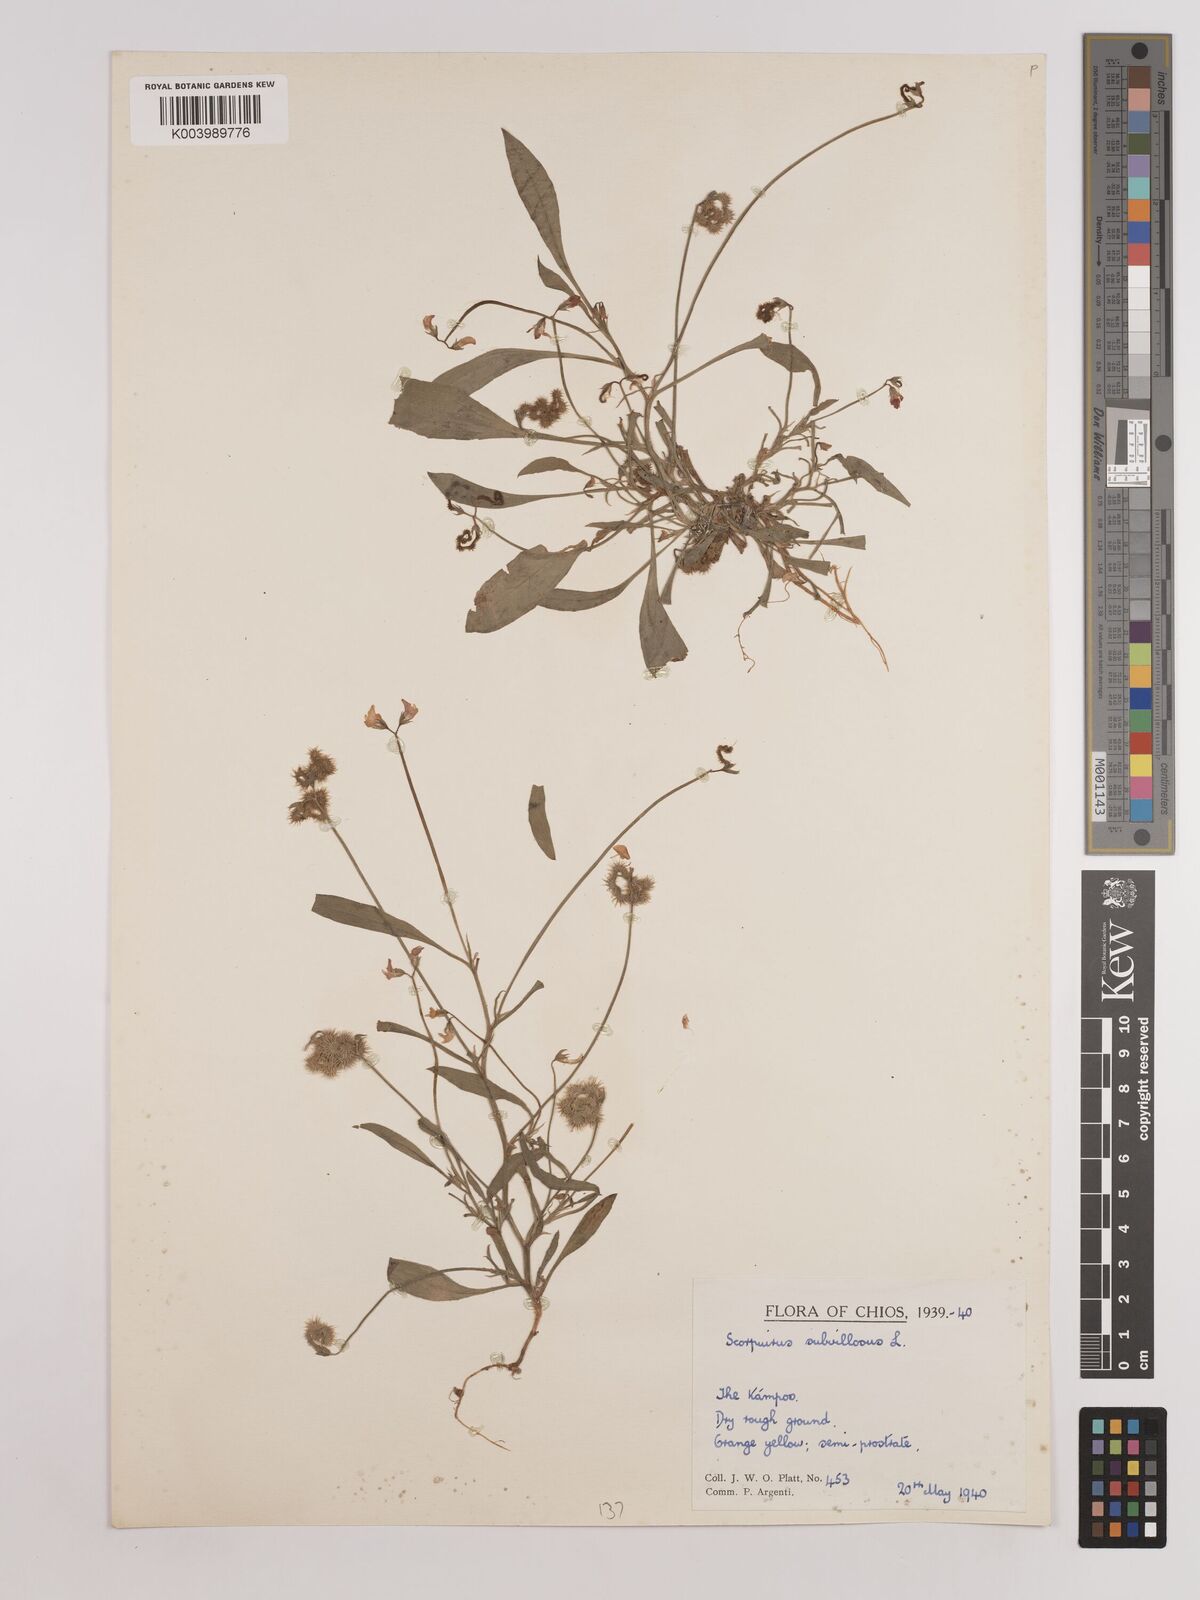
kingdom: Plantae
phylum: Tracheophyta
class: Magnoliopsida
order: Fabales
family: Fabaceae
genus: Scorpiurus
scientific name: Scorpiurus muricatus
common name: Caterpillar-plant
